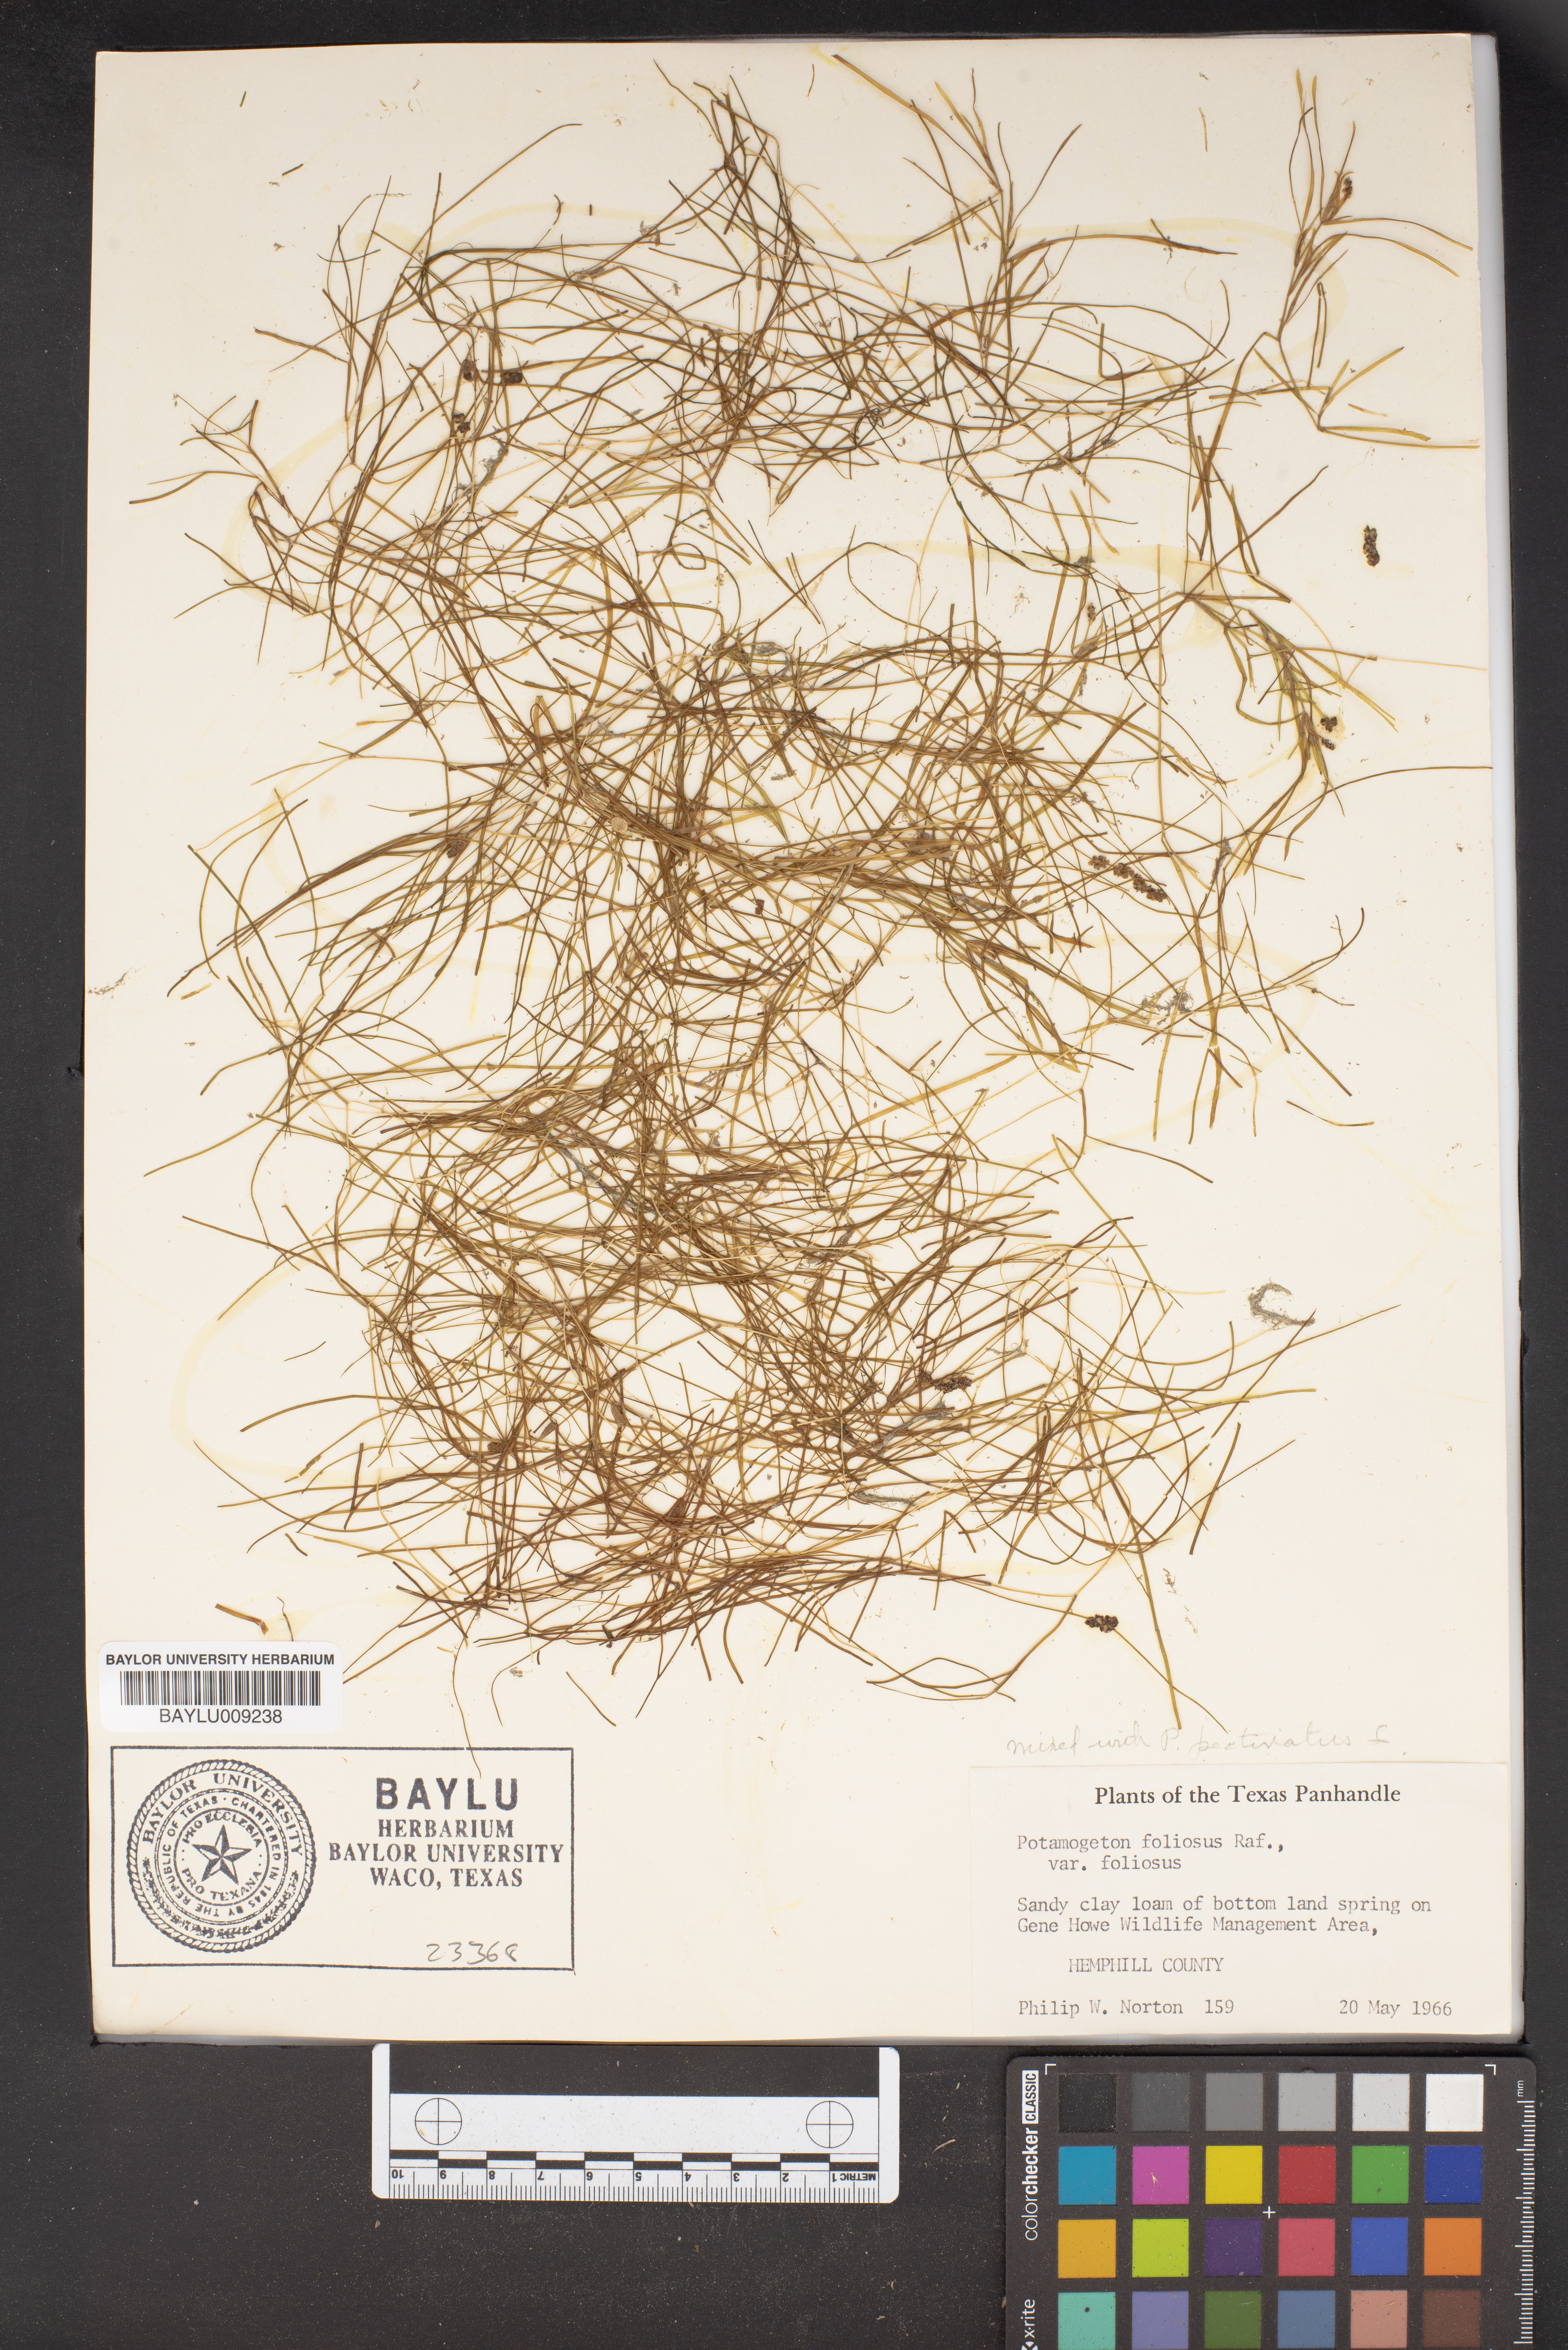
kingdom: Plantae
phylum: Tracheophyta
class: Liliopsida
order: Alismatales
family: Potamogetonaceae
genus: Potamogeton
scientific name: Potamogeton foliosus
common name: Leafy pondweed
